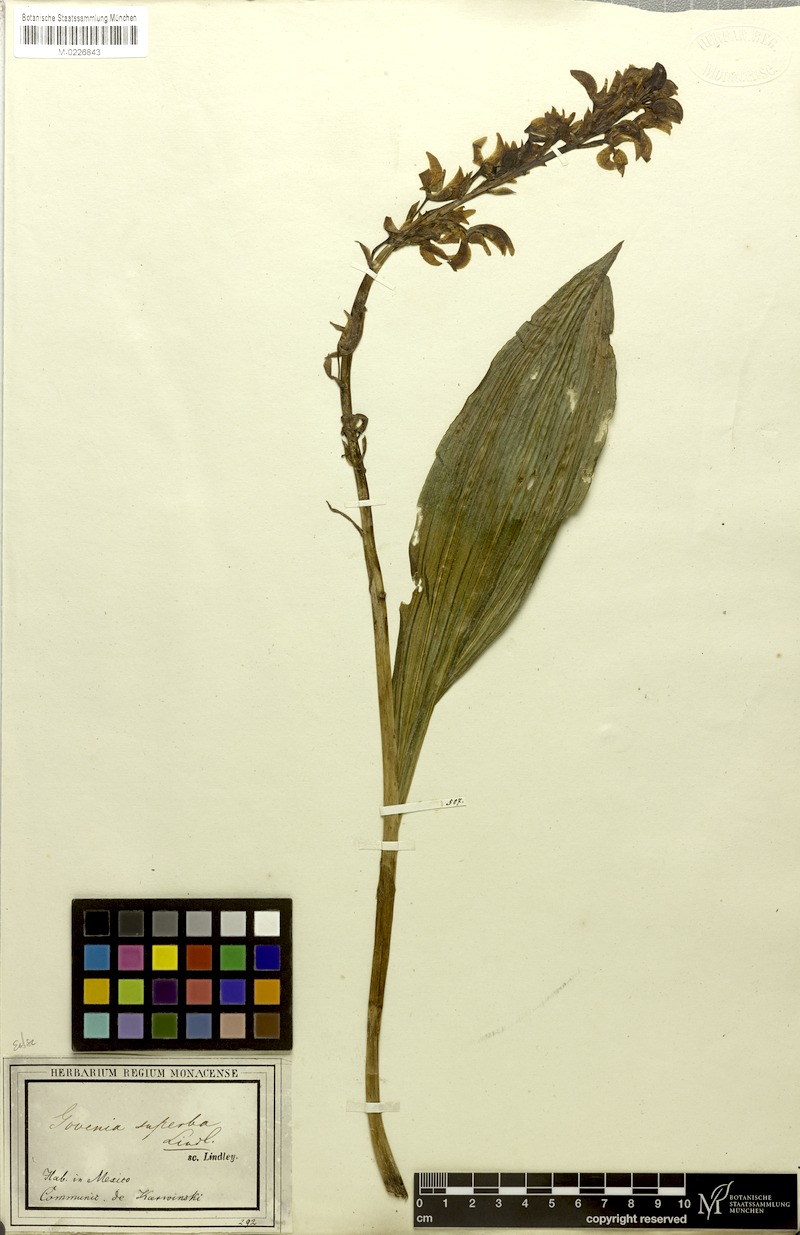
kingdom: Plantae
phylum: Tracheophyta
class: Liliopsida
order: Asparagales
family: Orchidaceae
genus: Govenia
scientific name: Govenia superba
